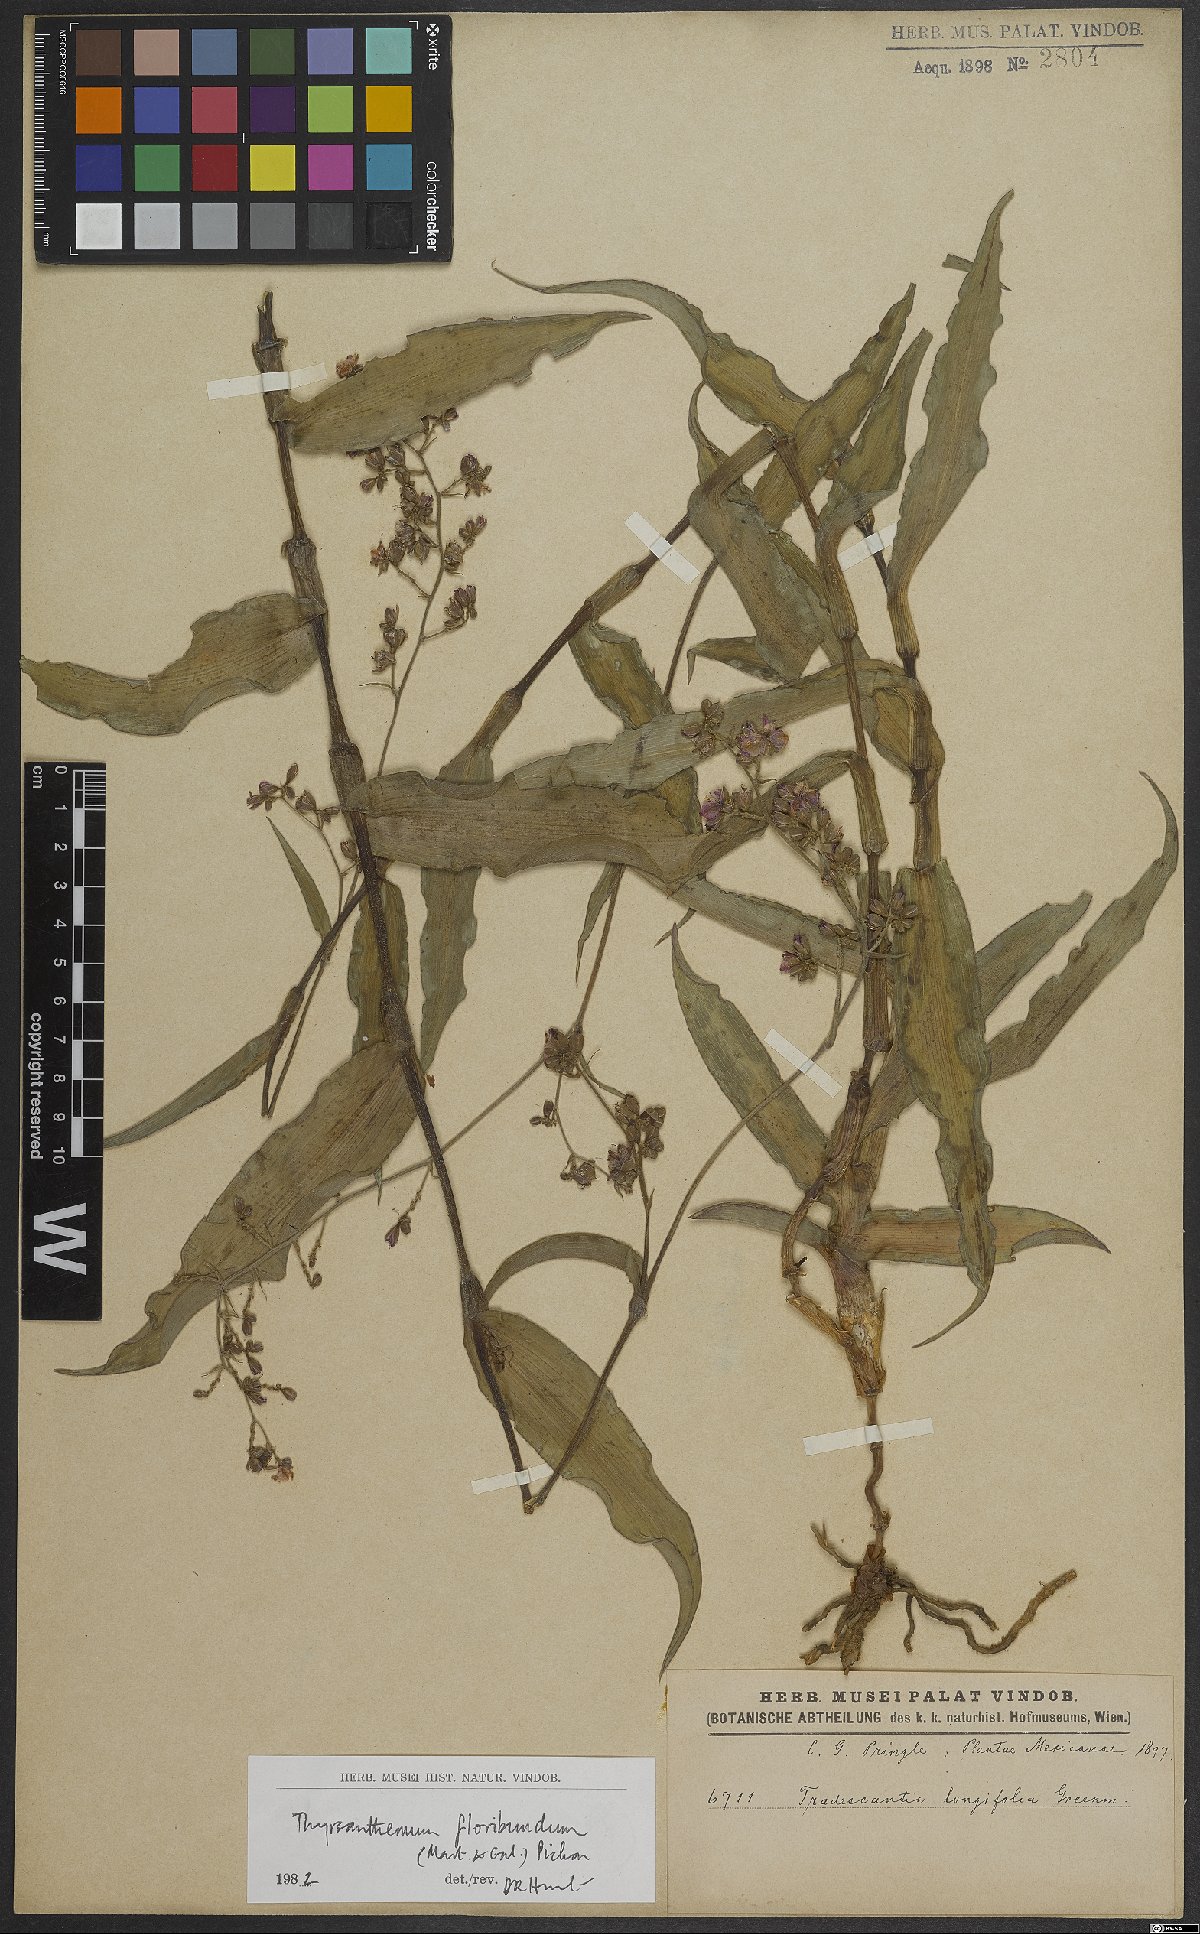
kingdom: Plantae
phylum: Tracheophyta
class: Liliopsida
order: Commelinales
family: Commelinaceae
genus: Thyrsanthemum
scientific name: Thyrsanthemum floribundum
